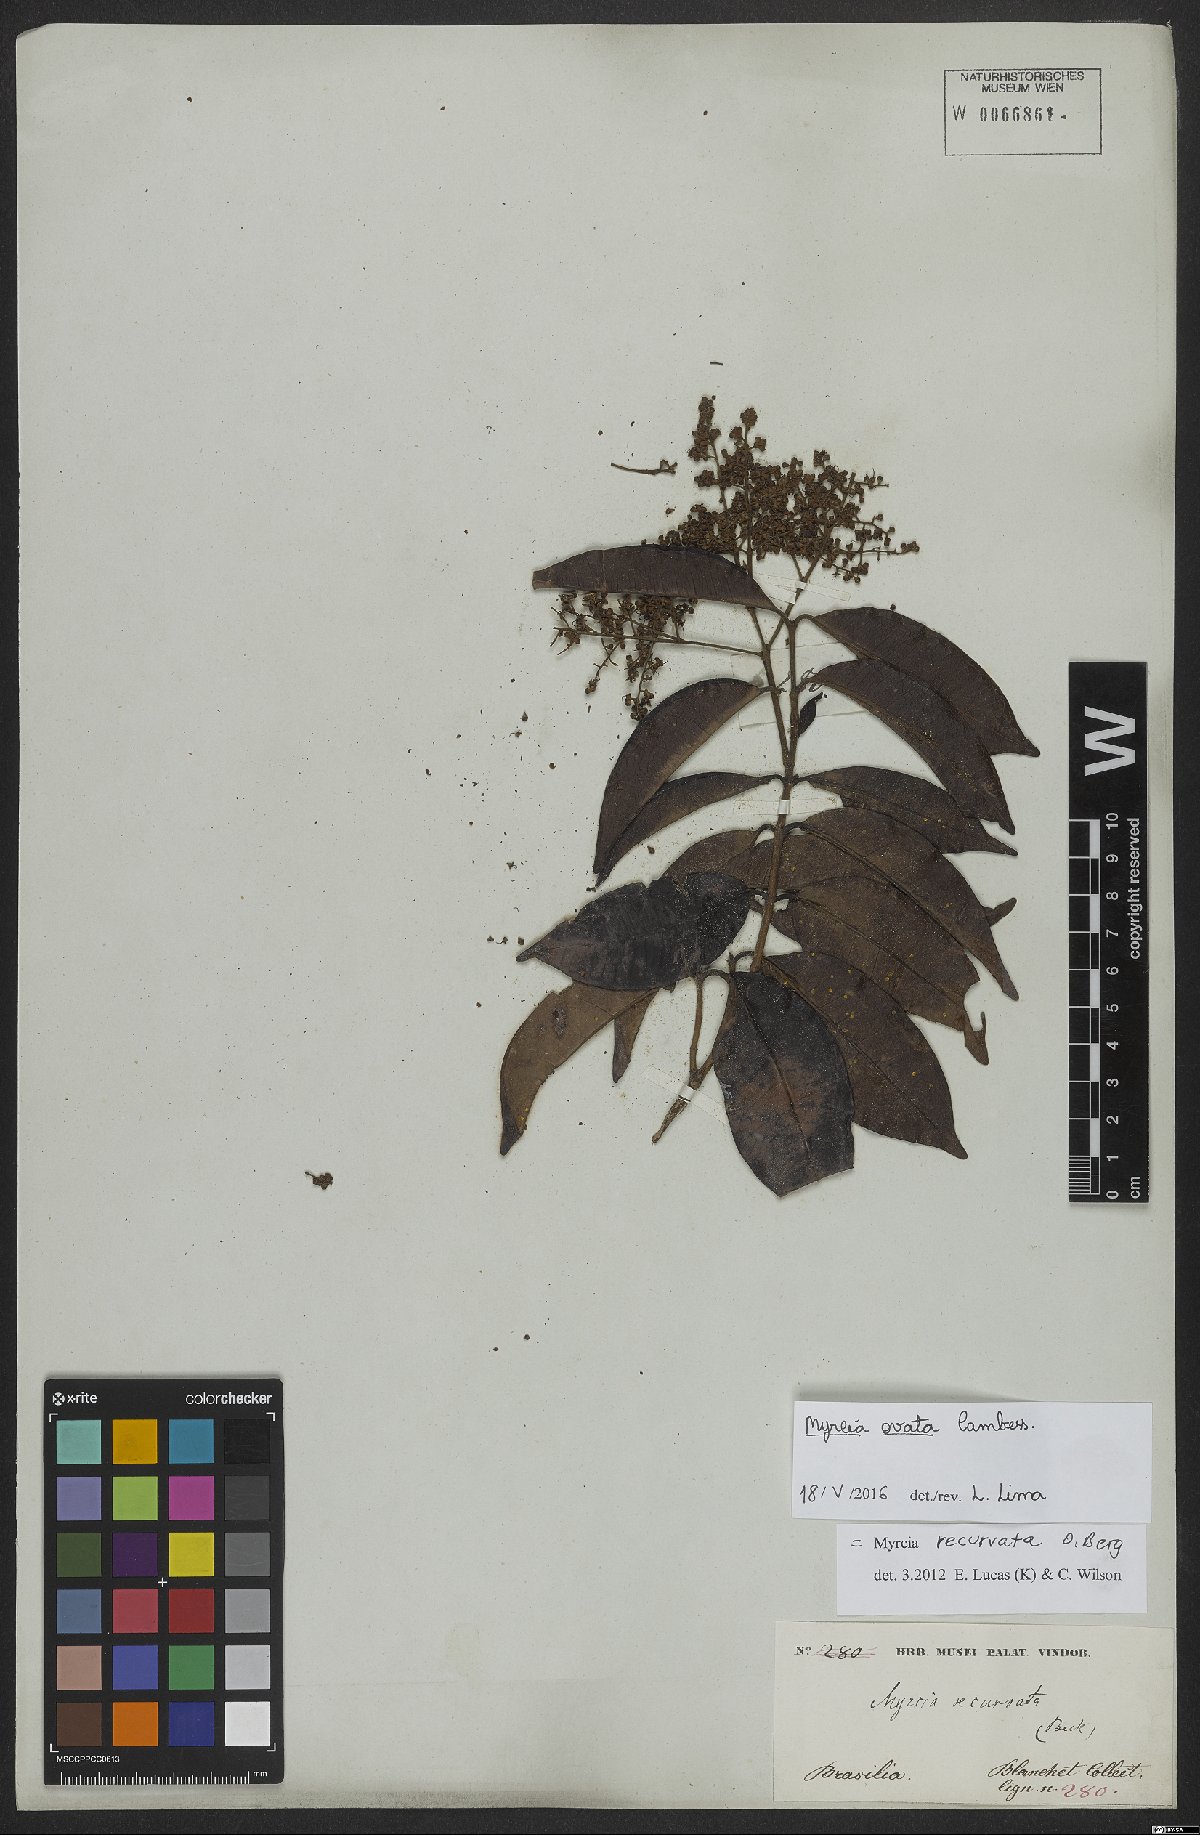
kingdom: Plantae
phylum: Tracheophyta
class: Magnoliopsida
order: Myrtales
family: Myrtaceae
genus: Myrcia
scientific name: Myrcia ovata
